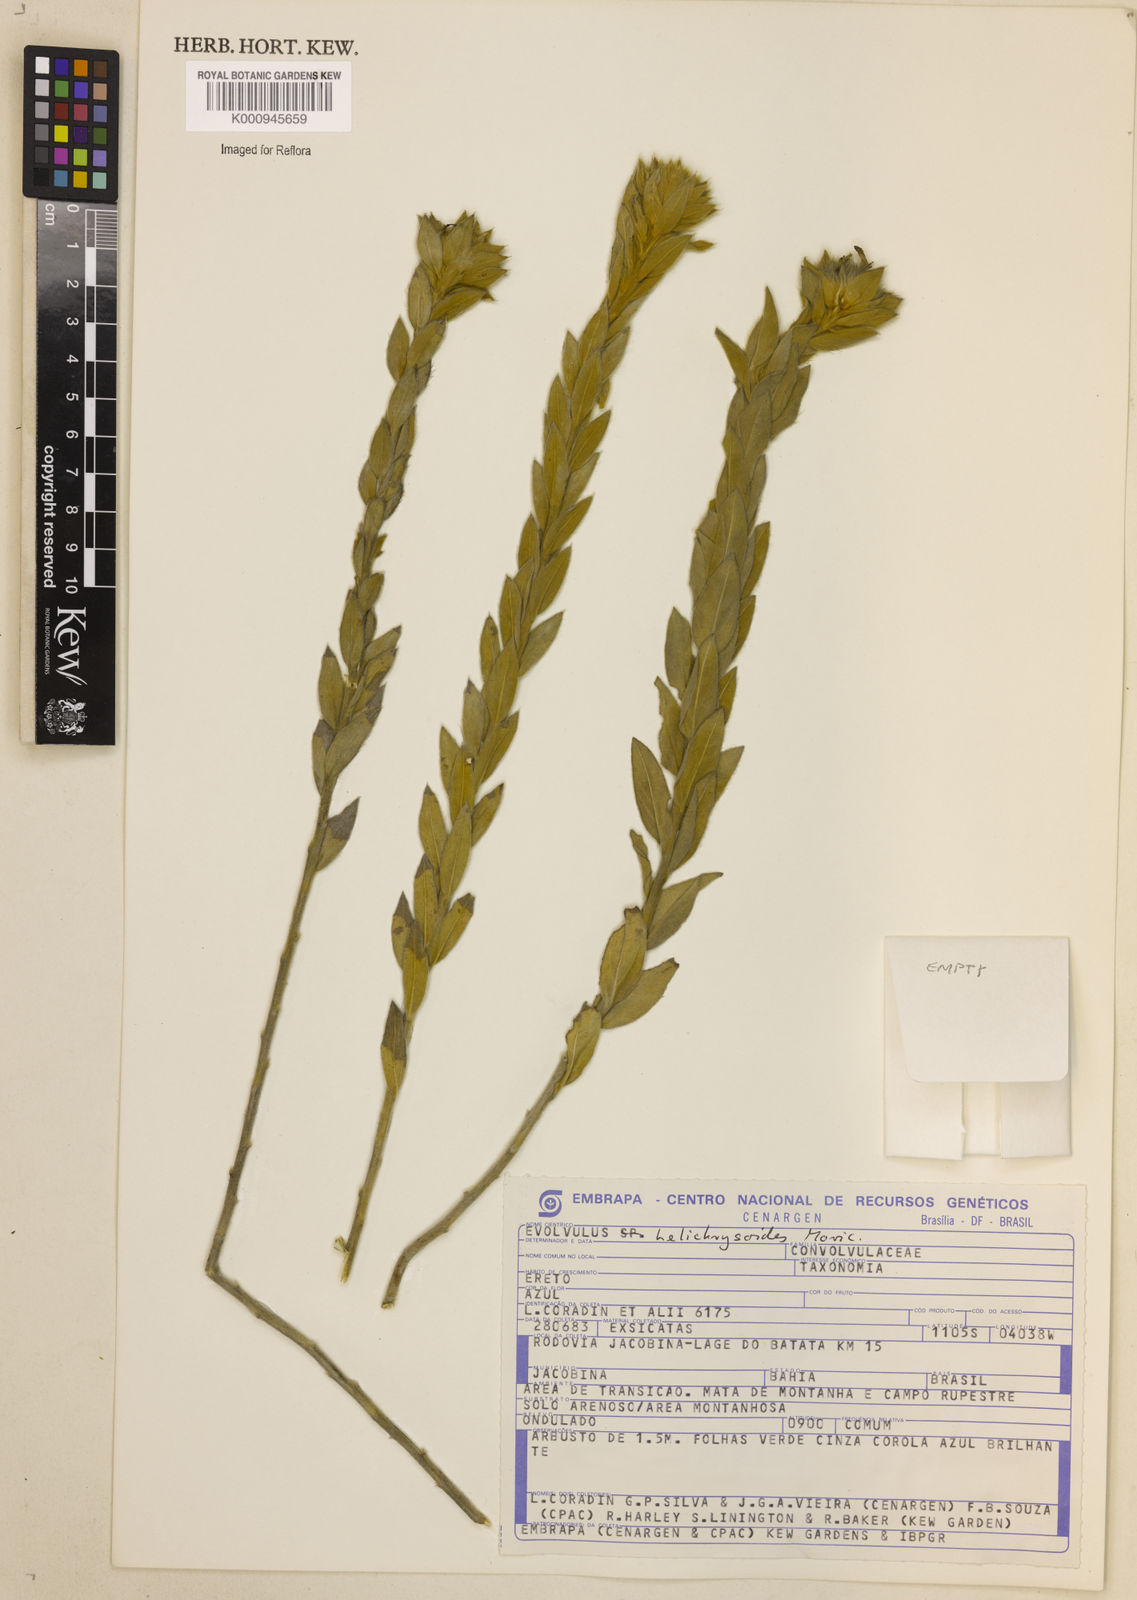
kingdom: Plantae
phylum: Tracheophyta
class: Magnoliopsida
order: Solanales
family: Convolvulaceae
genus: Evolvulus
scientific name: Evolvulus helichrysoides
